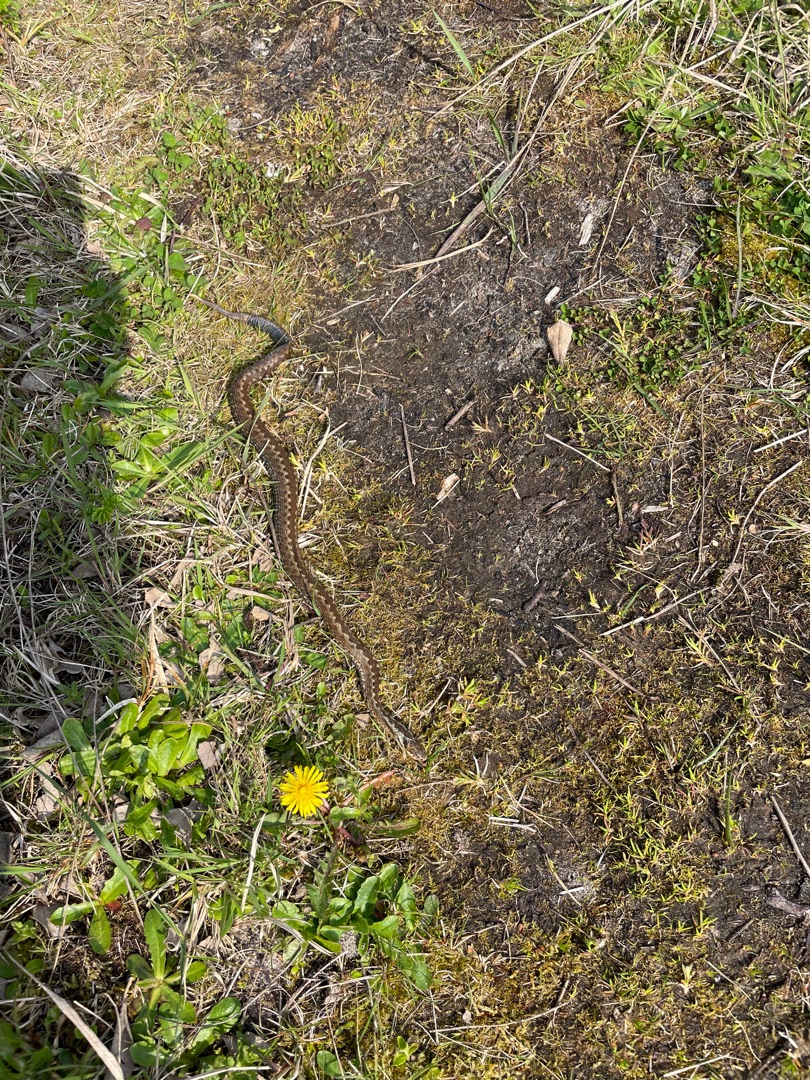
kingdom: Animalia
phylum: Chordata
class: Squamata
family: Viperidae
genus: Vipera
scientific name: Vipera berus
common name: Hugorm
